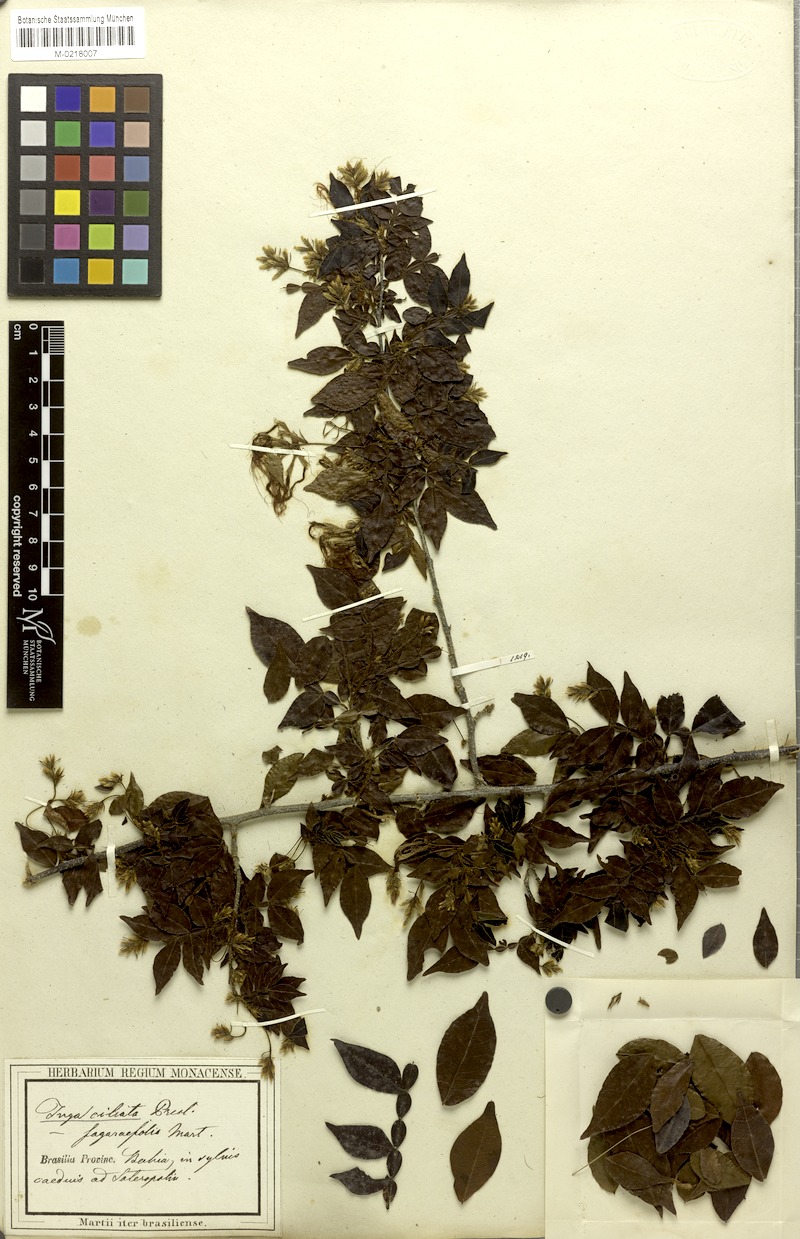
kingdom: Plantae
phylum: Tracheophyta
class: Magnoliopsida
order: Fabales
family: Fabaceae
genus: Inga
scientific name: Inga ciliata
